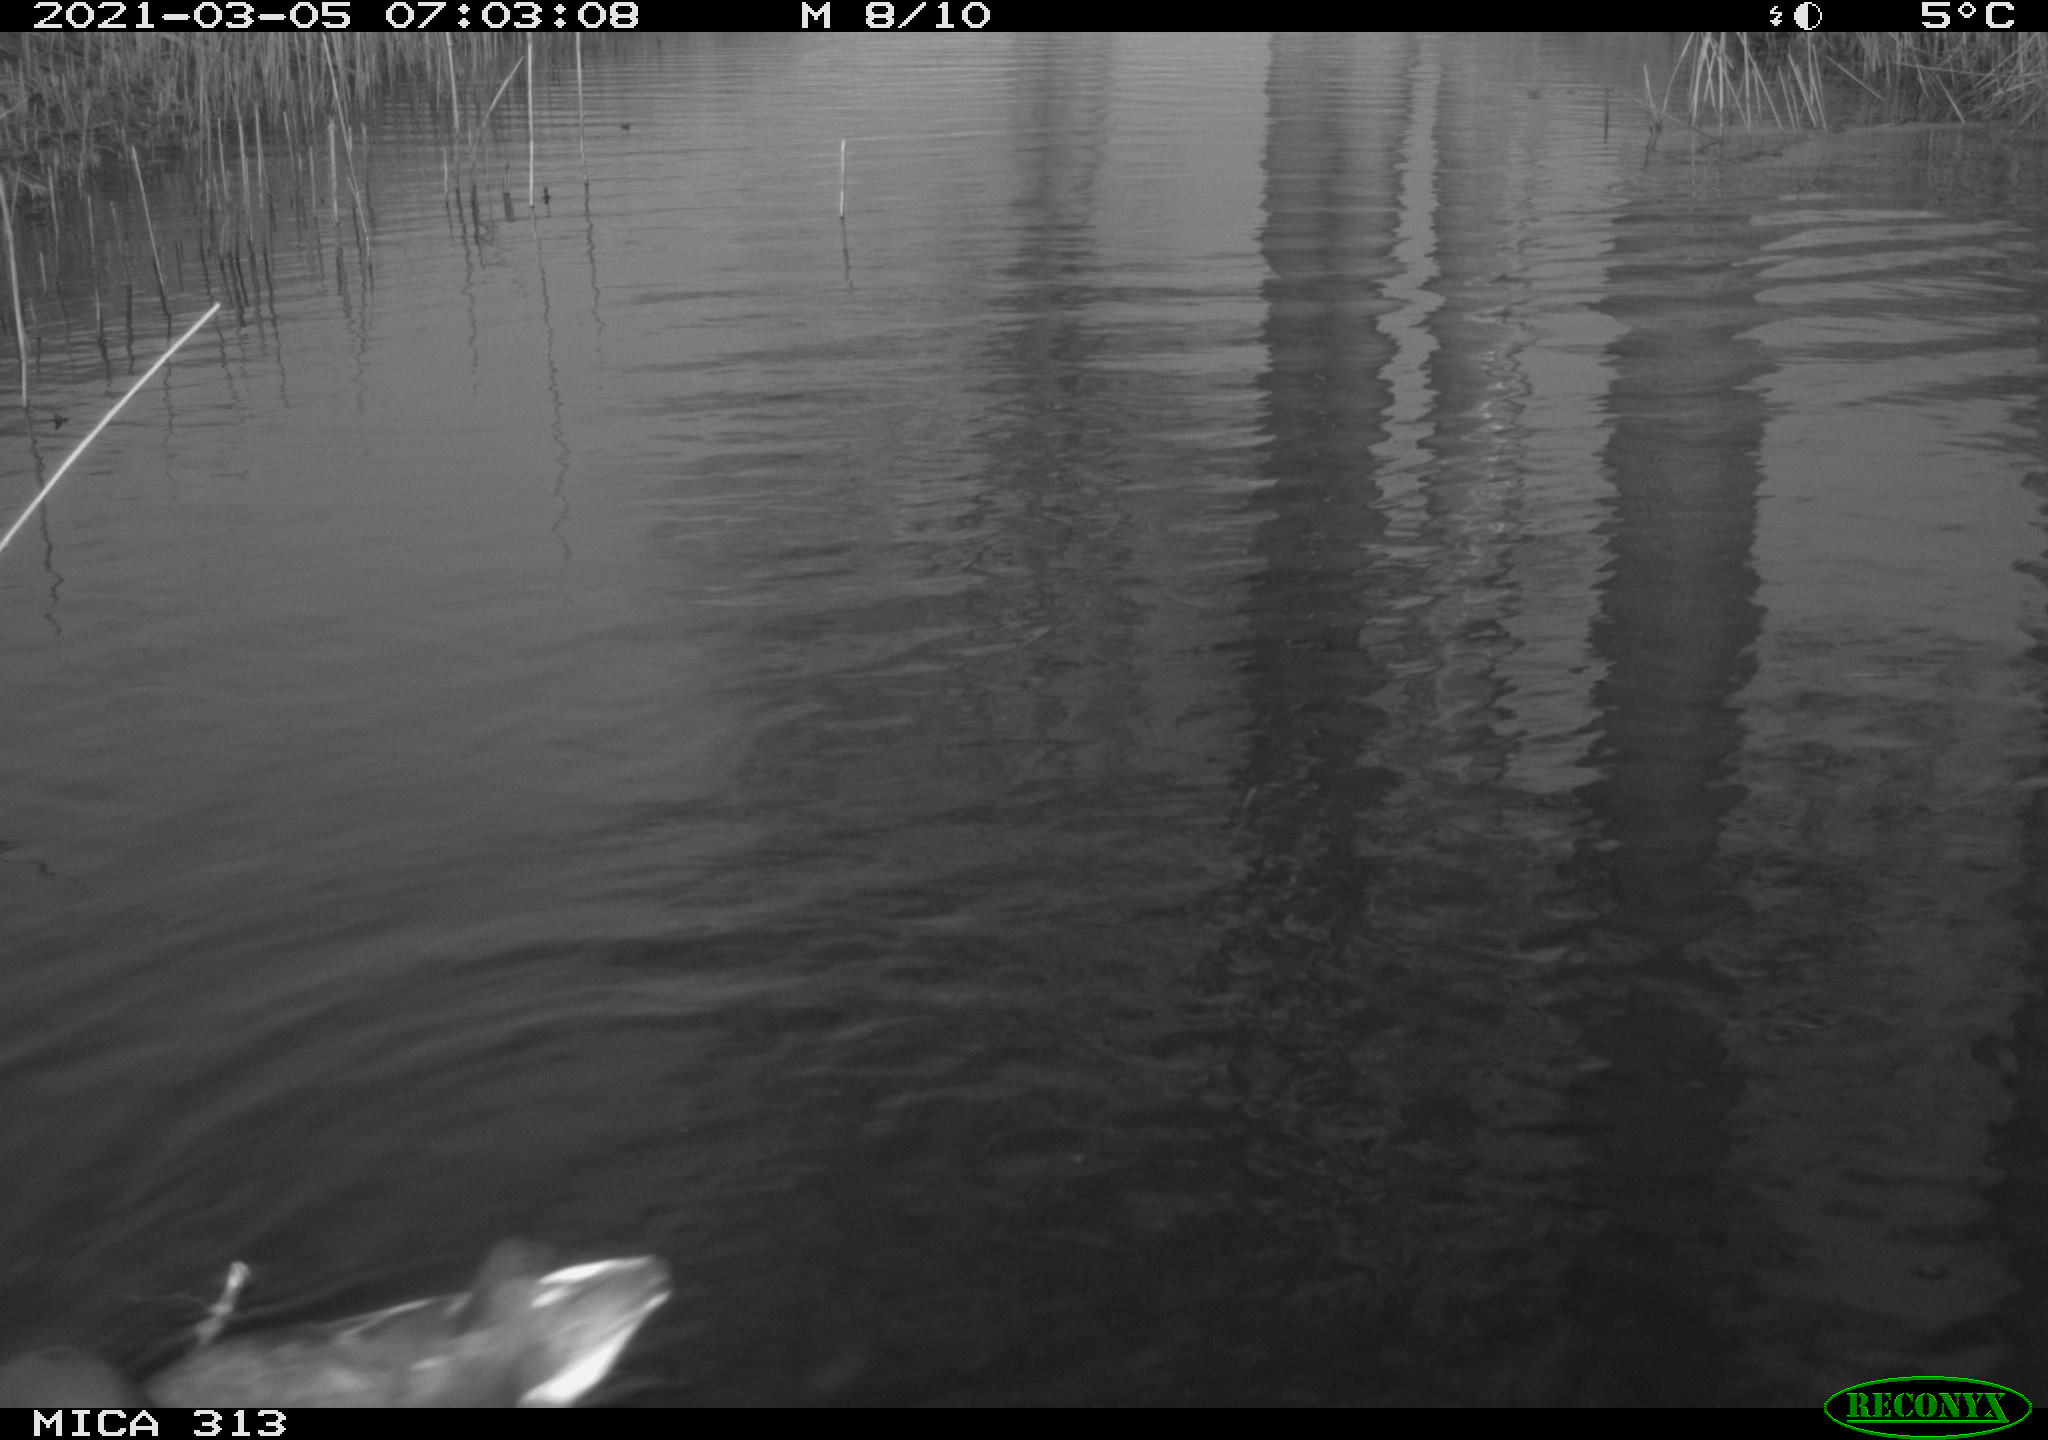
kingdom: Animalia
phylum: Chordata
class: Aves
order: Gruiformes
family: Rallidae
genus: Gallinula
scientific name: Gallinula chloropus
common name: Common moorhen
